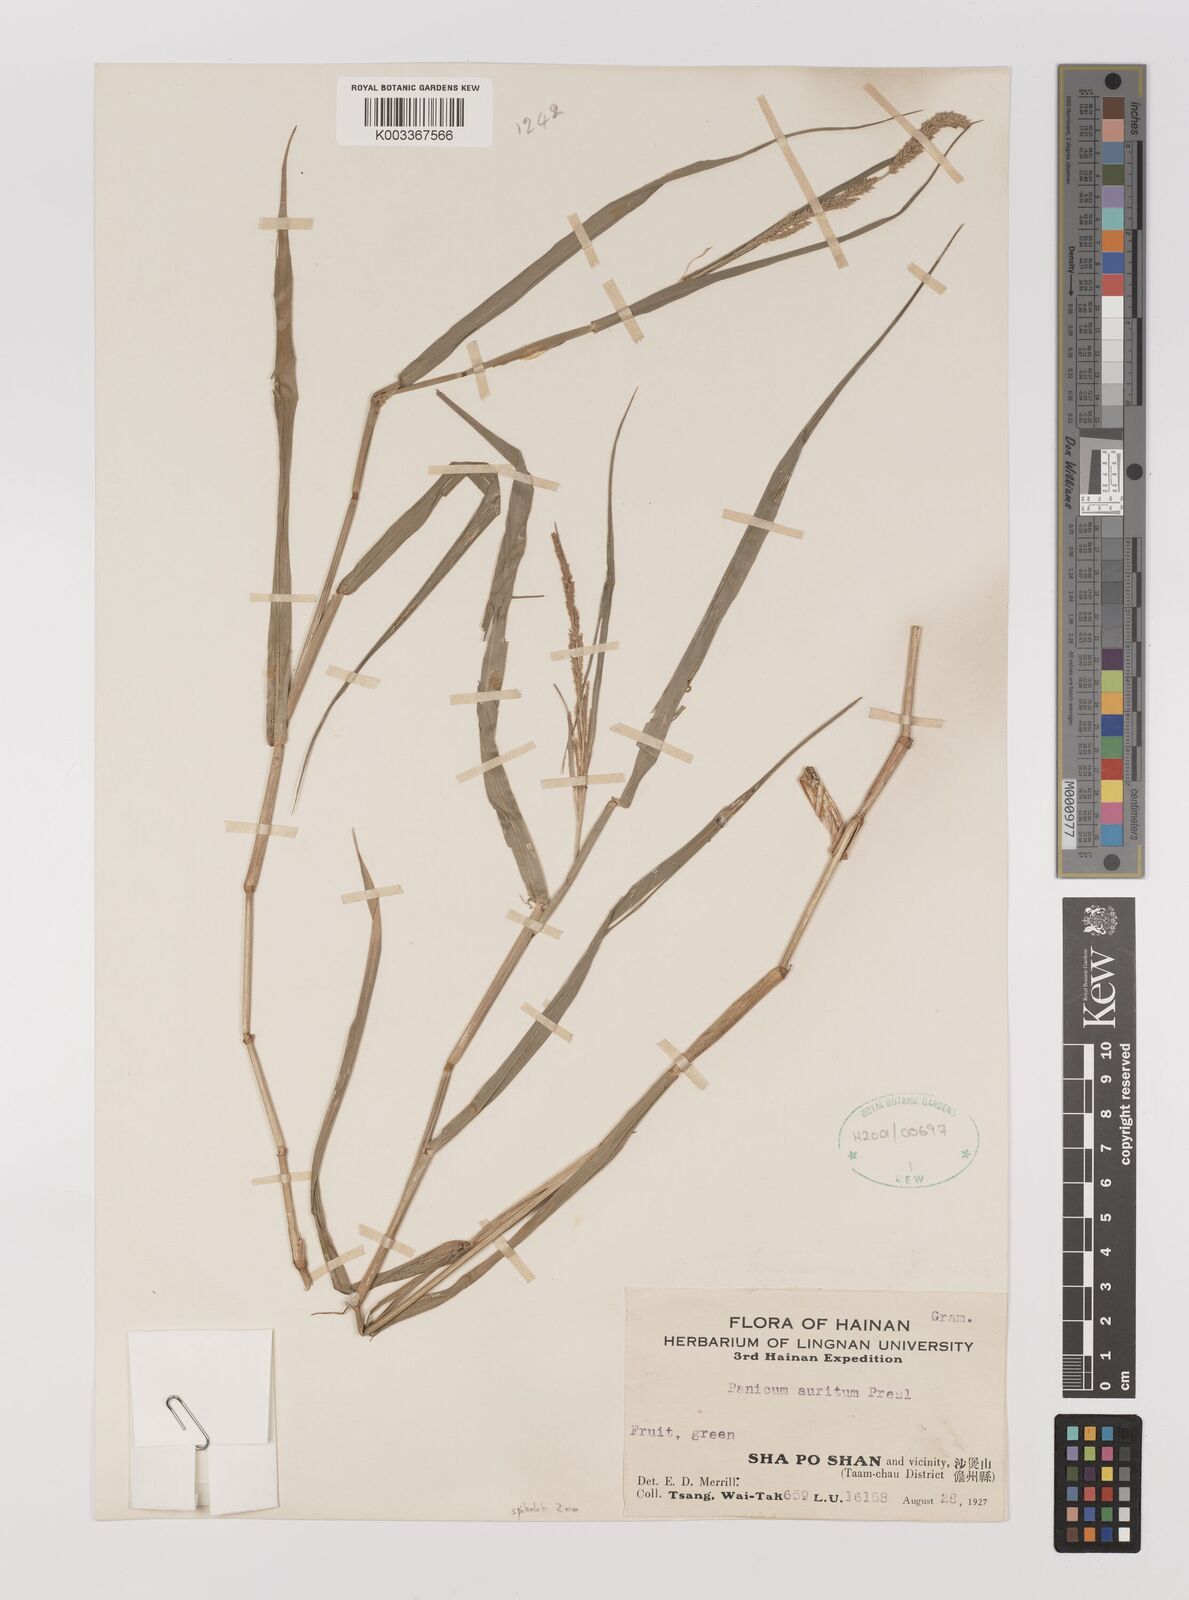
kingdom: Plantae
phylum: Tracheophyta
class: Liliopsida
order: Poales
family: Poaceae
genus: Hymenachne
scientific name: Hymenachne amplexicaulis
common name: Olive hymenachne
